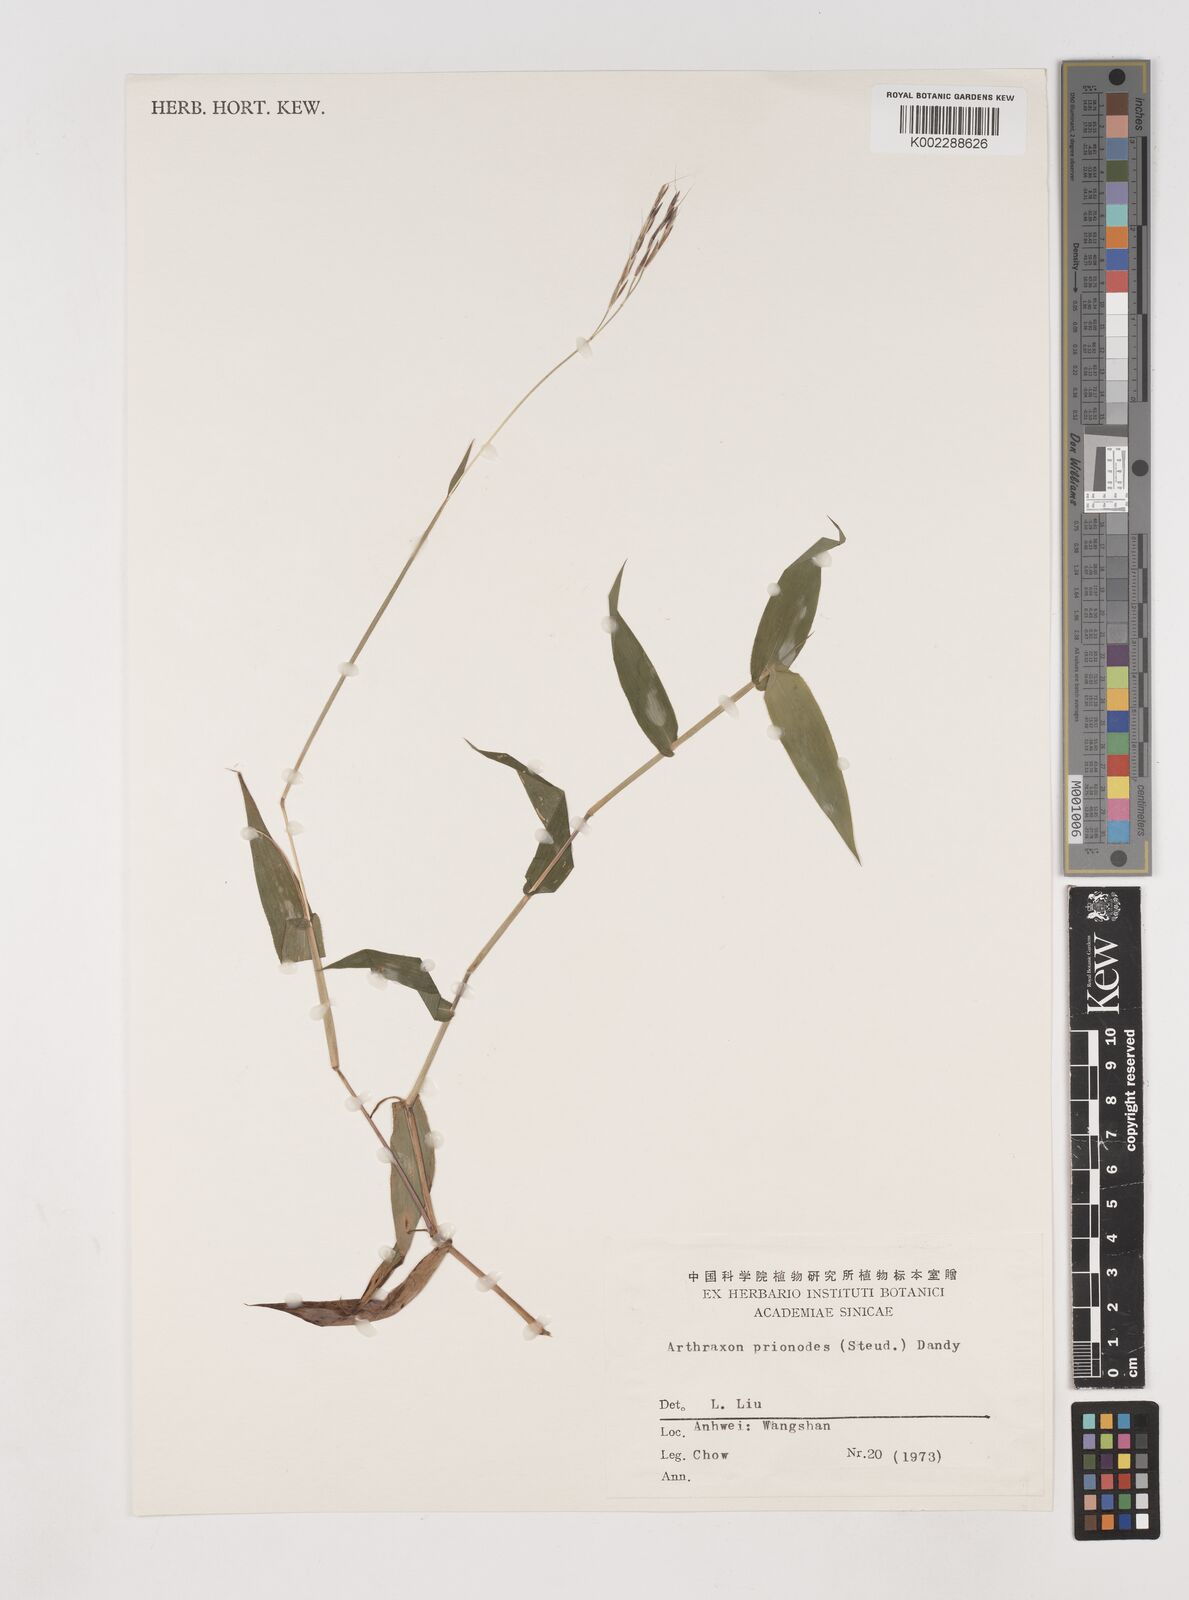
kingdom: Plantae
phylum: Tracheophyta
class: Liliopsida
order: Poales
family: Poaceae
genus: Arthraxon
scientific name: Arthraxon prionodes
